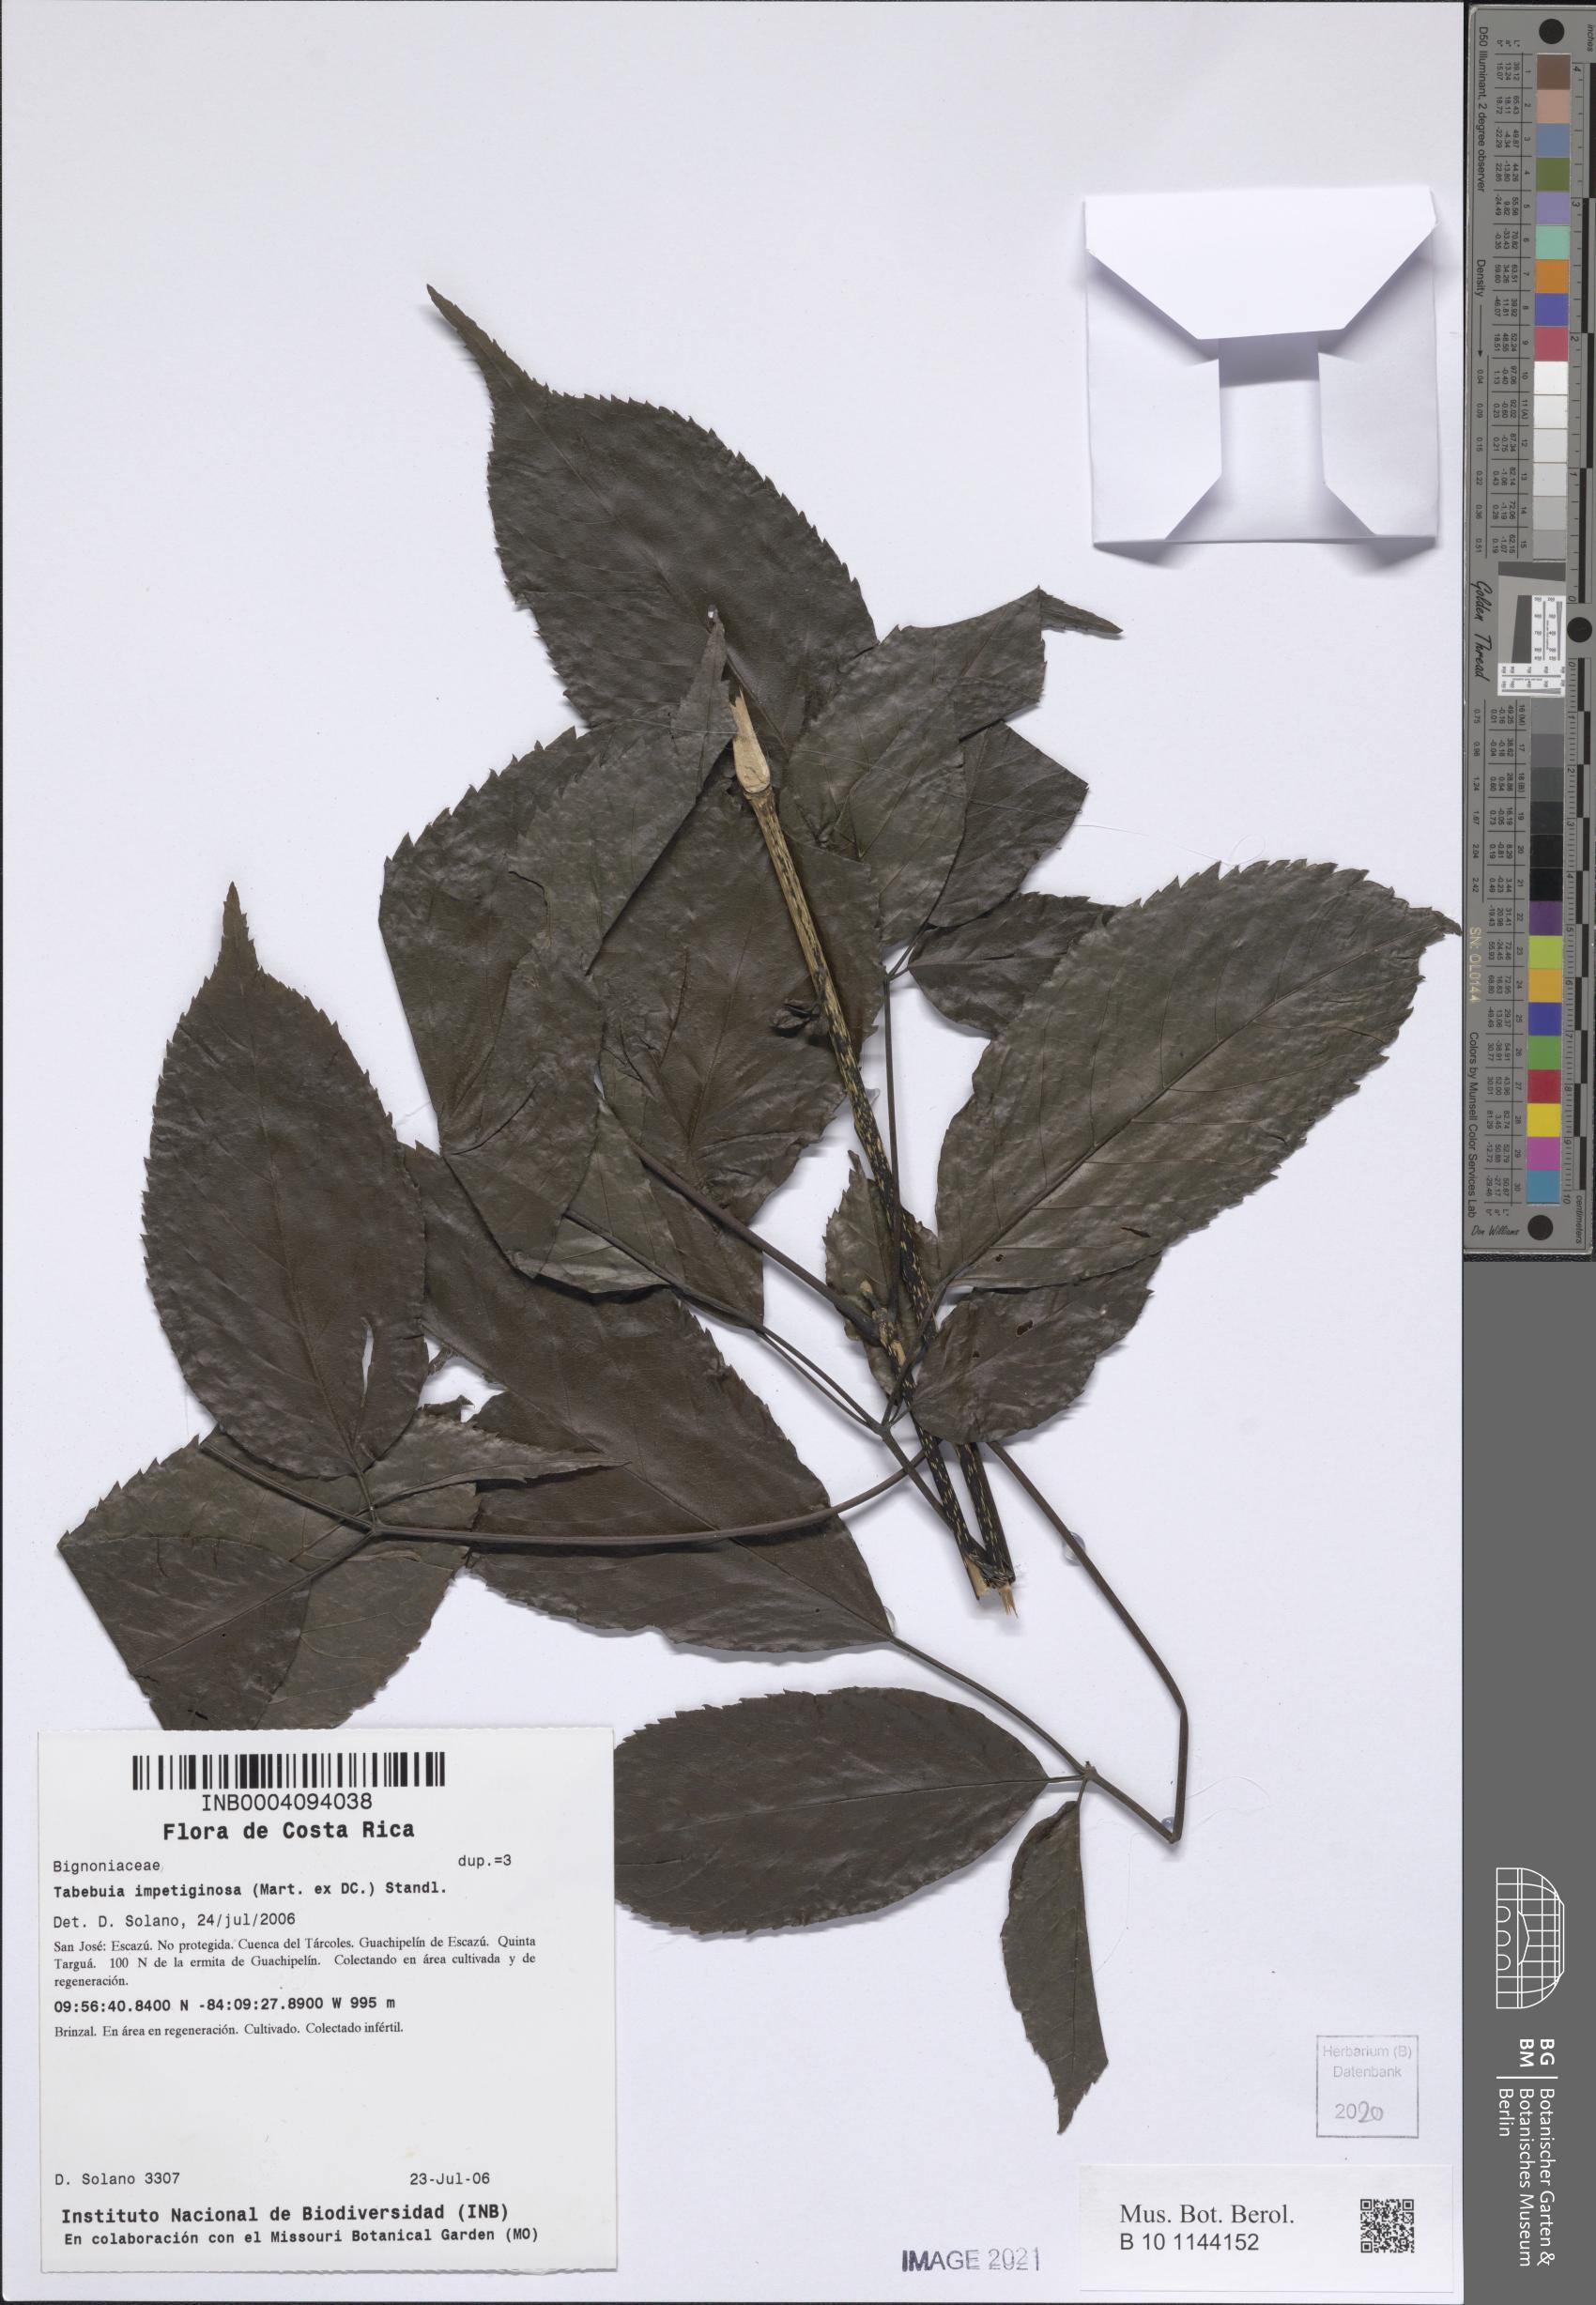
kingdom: Plantae
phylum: Tracheophyta
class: Magnoliopsida
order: Lamiales
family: Bignoniaceae
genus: Handroanthus
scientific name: Handroanthus impetiginosum
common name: Pink trumpet tree
